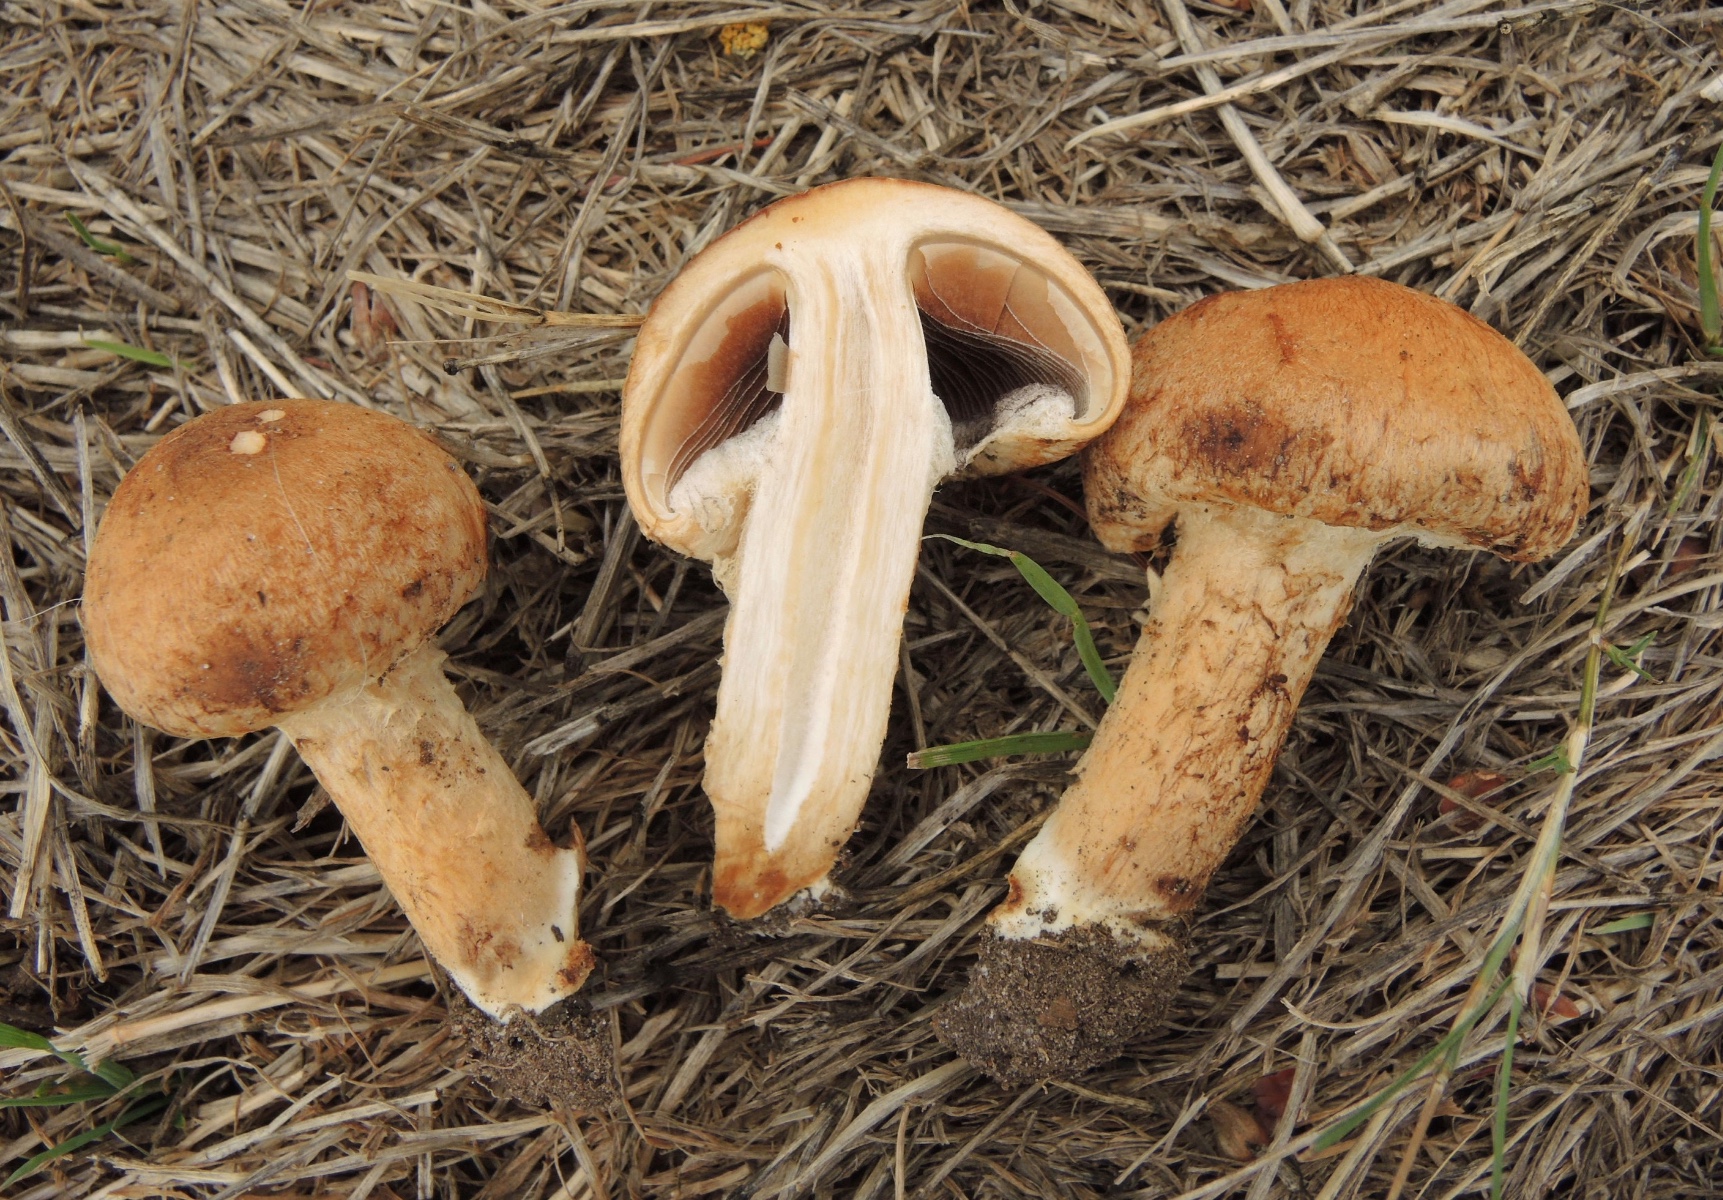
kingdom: Fungi
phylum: Basidiomycota
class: Agaricomycetes
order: Agaricales
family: Psathyrellaceae
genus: Lacrymaria
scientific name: Lacrymaria lacrymabunda
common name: grædende mørkhat
